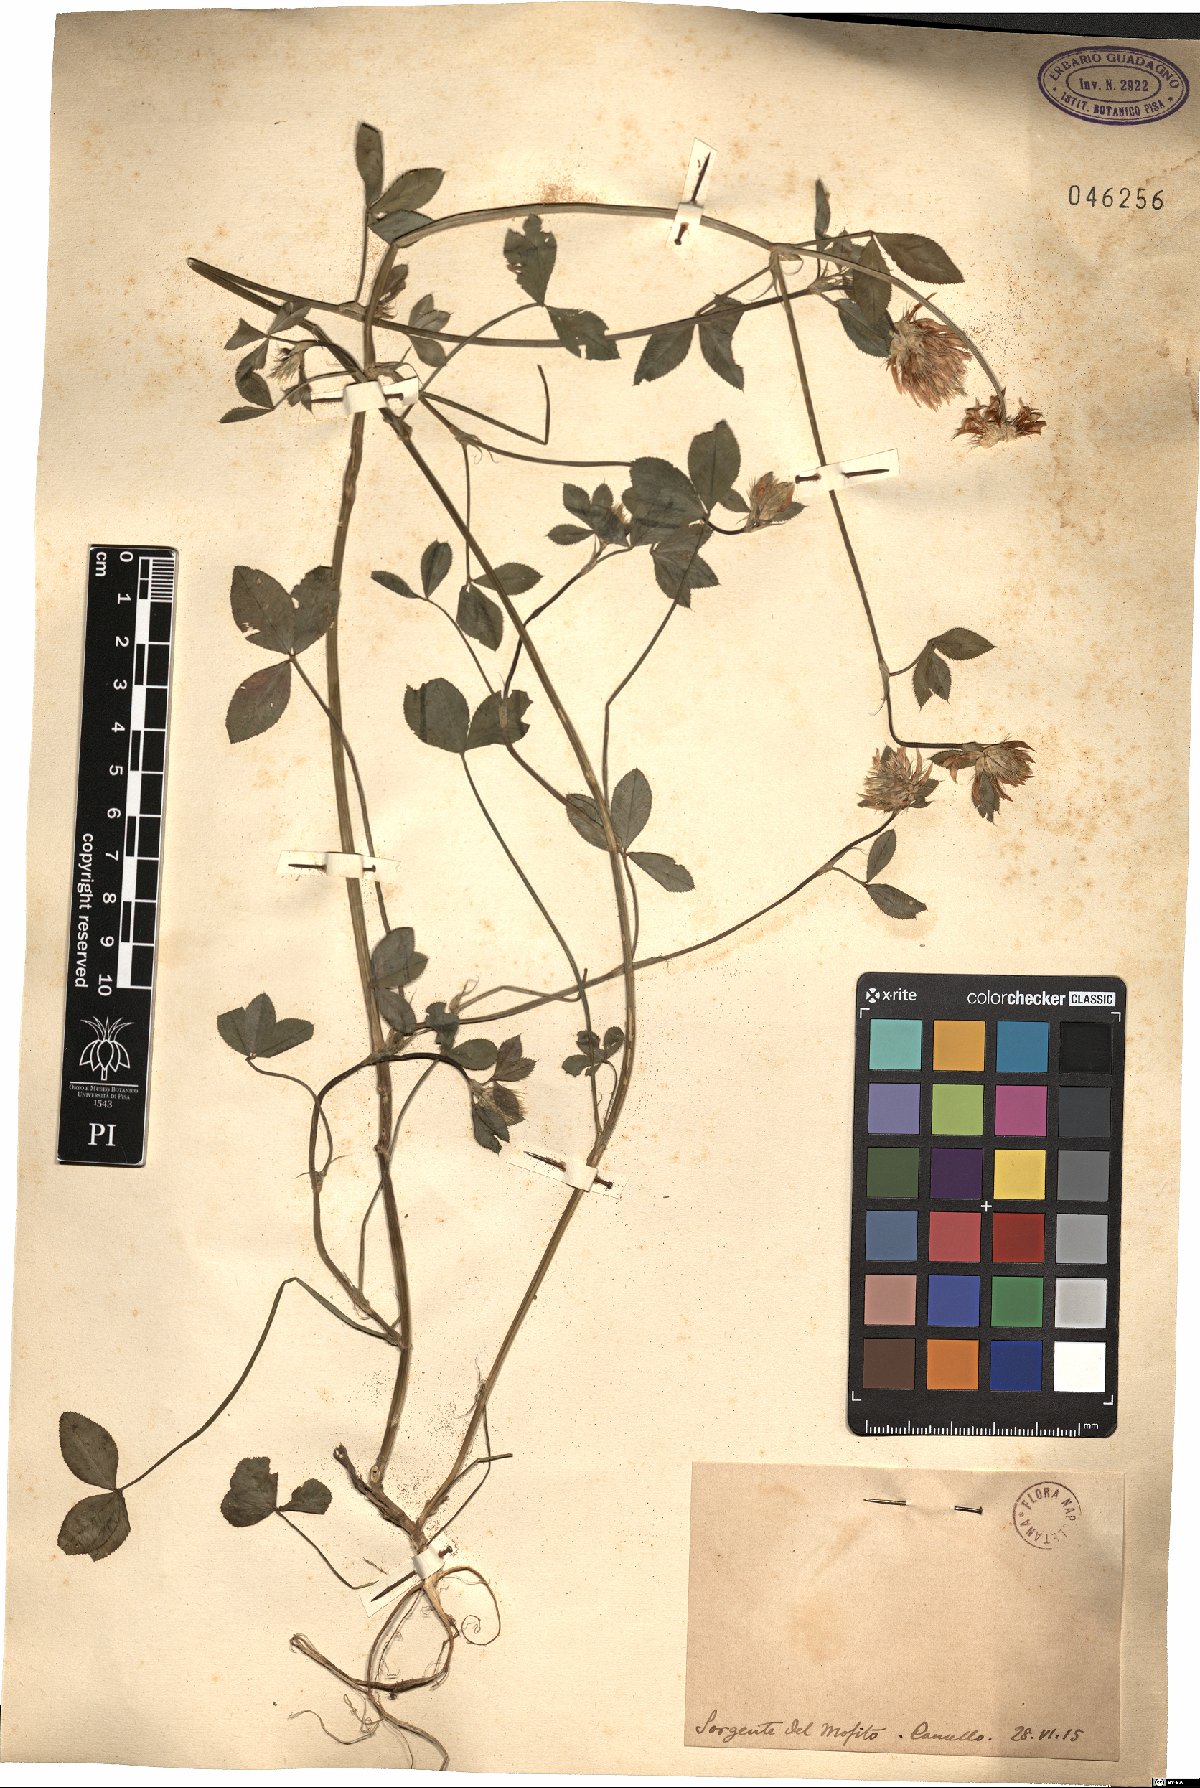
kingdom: Plantae
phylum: Tracheophyta
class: Magnoliopsida
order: Fabales
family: Fabaceae
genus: Trifolium
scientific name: Trifolium
